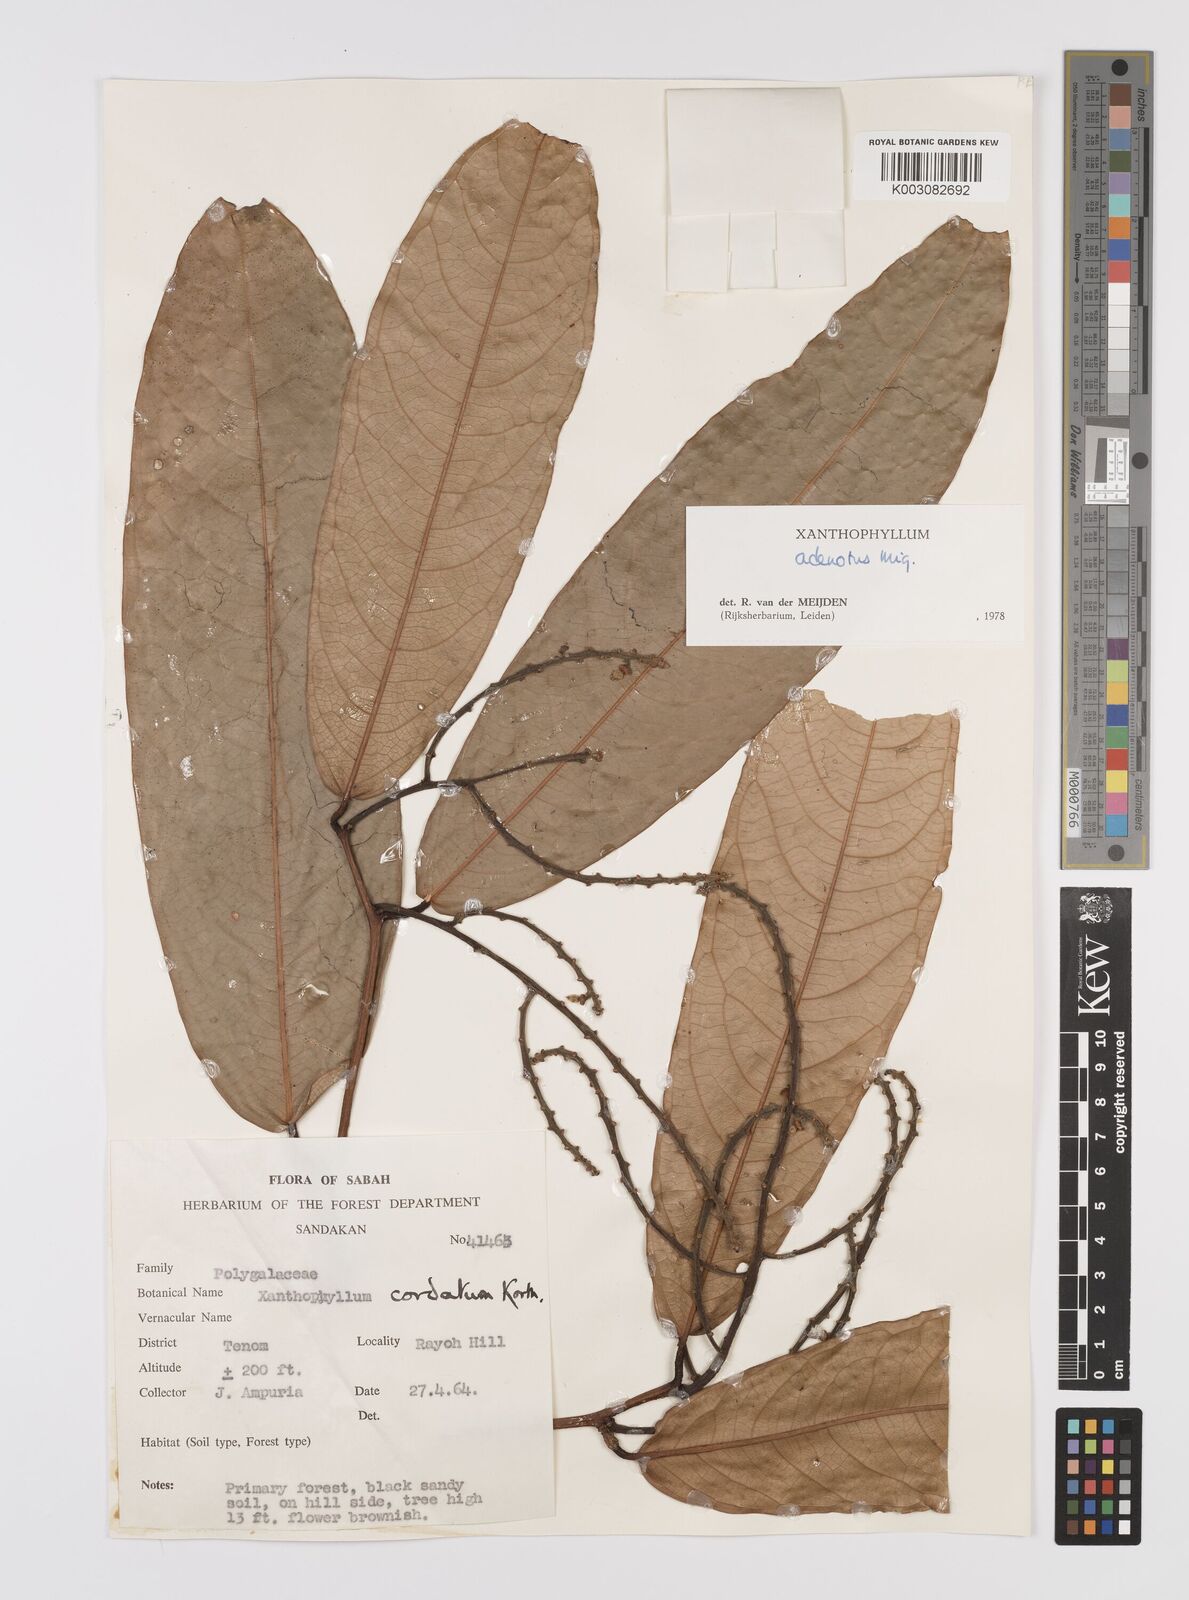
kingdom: Plantae
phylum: Tracheophyta
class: Magnoliopsida
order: Fabales
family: Polygalaceae
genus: Xanthophyllum
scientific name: Xanthophyllum adenotus
